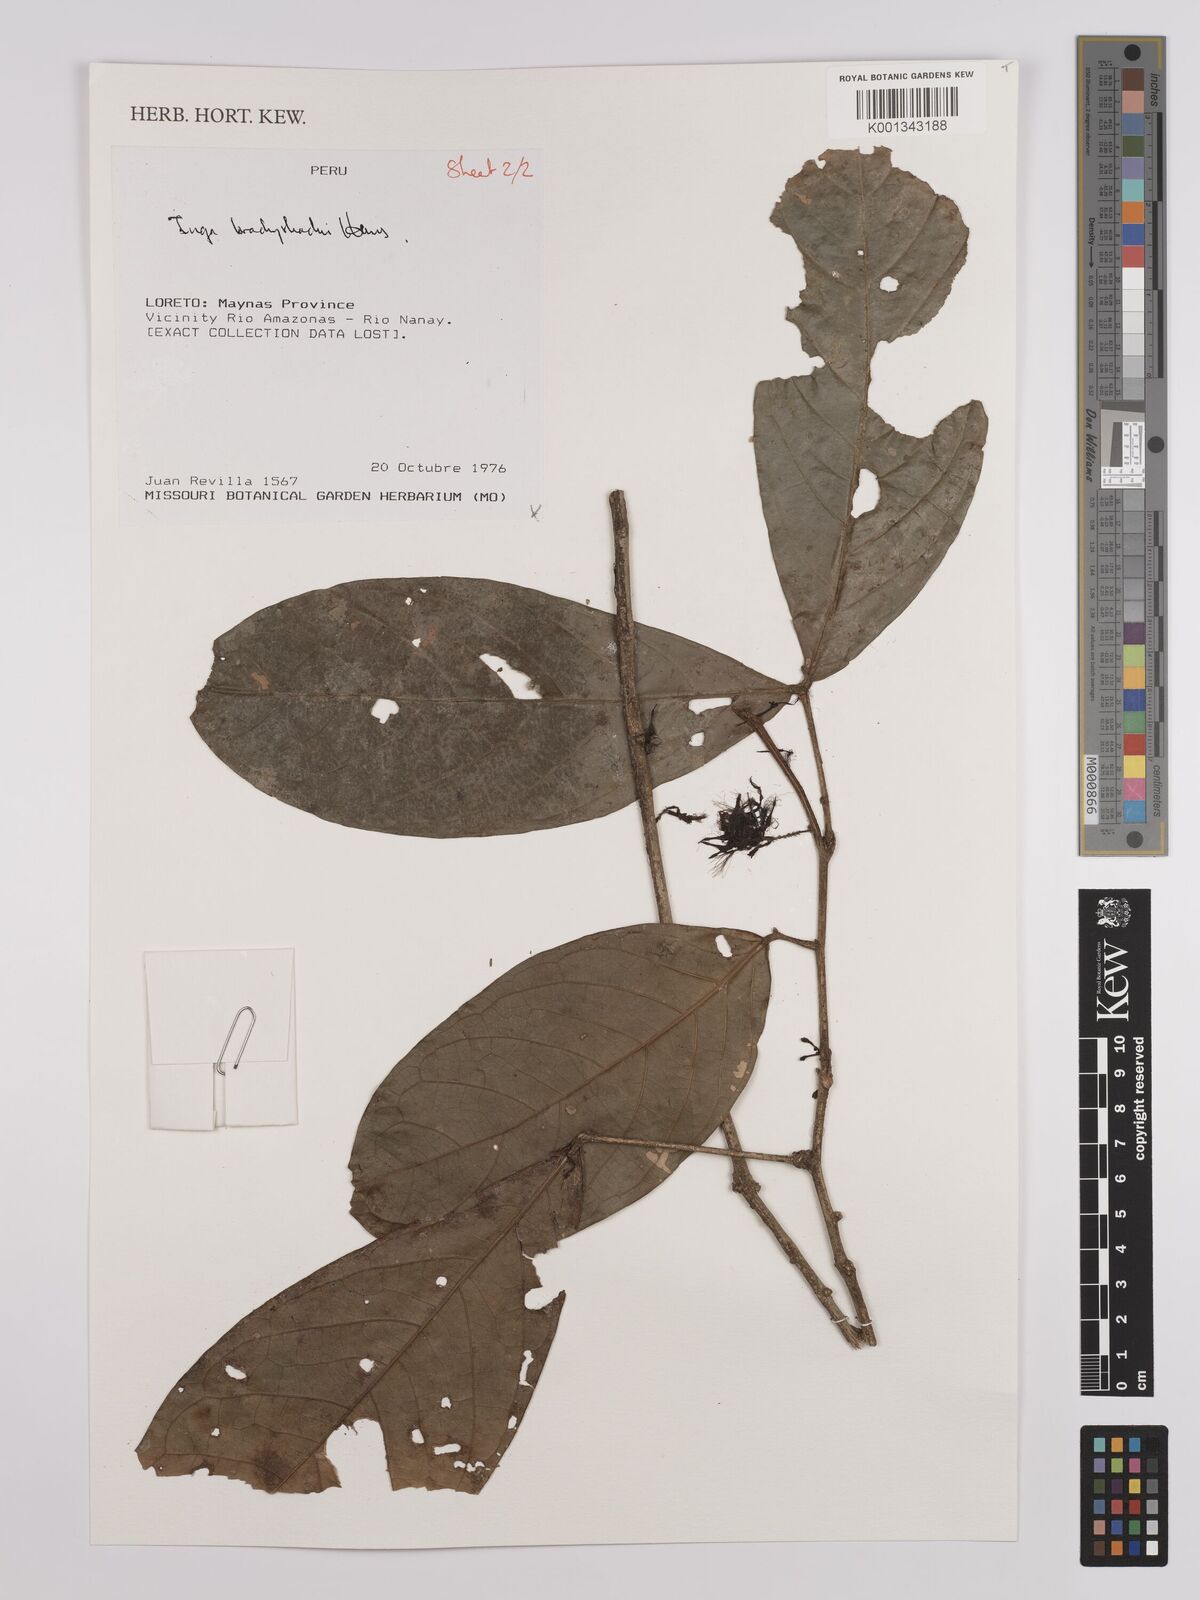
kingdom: Plantae
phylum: Tracheophyta
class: Magnoliopsida
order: Fabales
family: Fabaceae
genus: Inga
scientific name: Inga brachyrhachis
